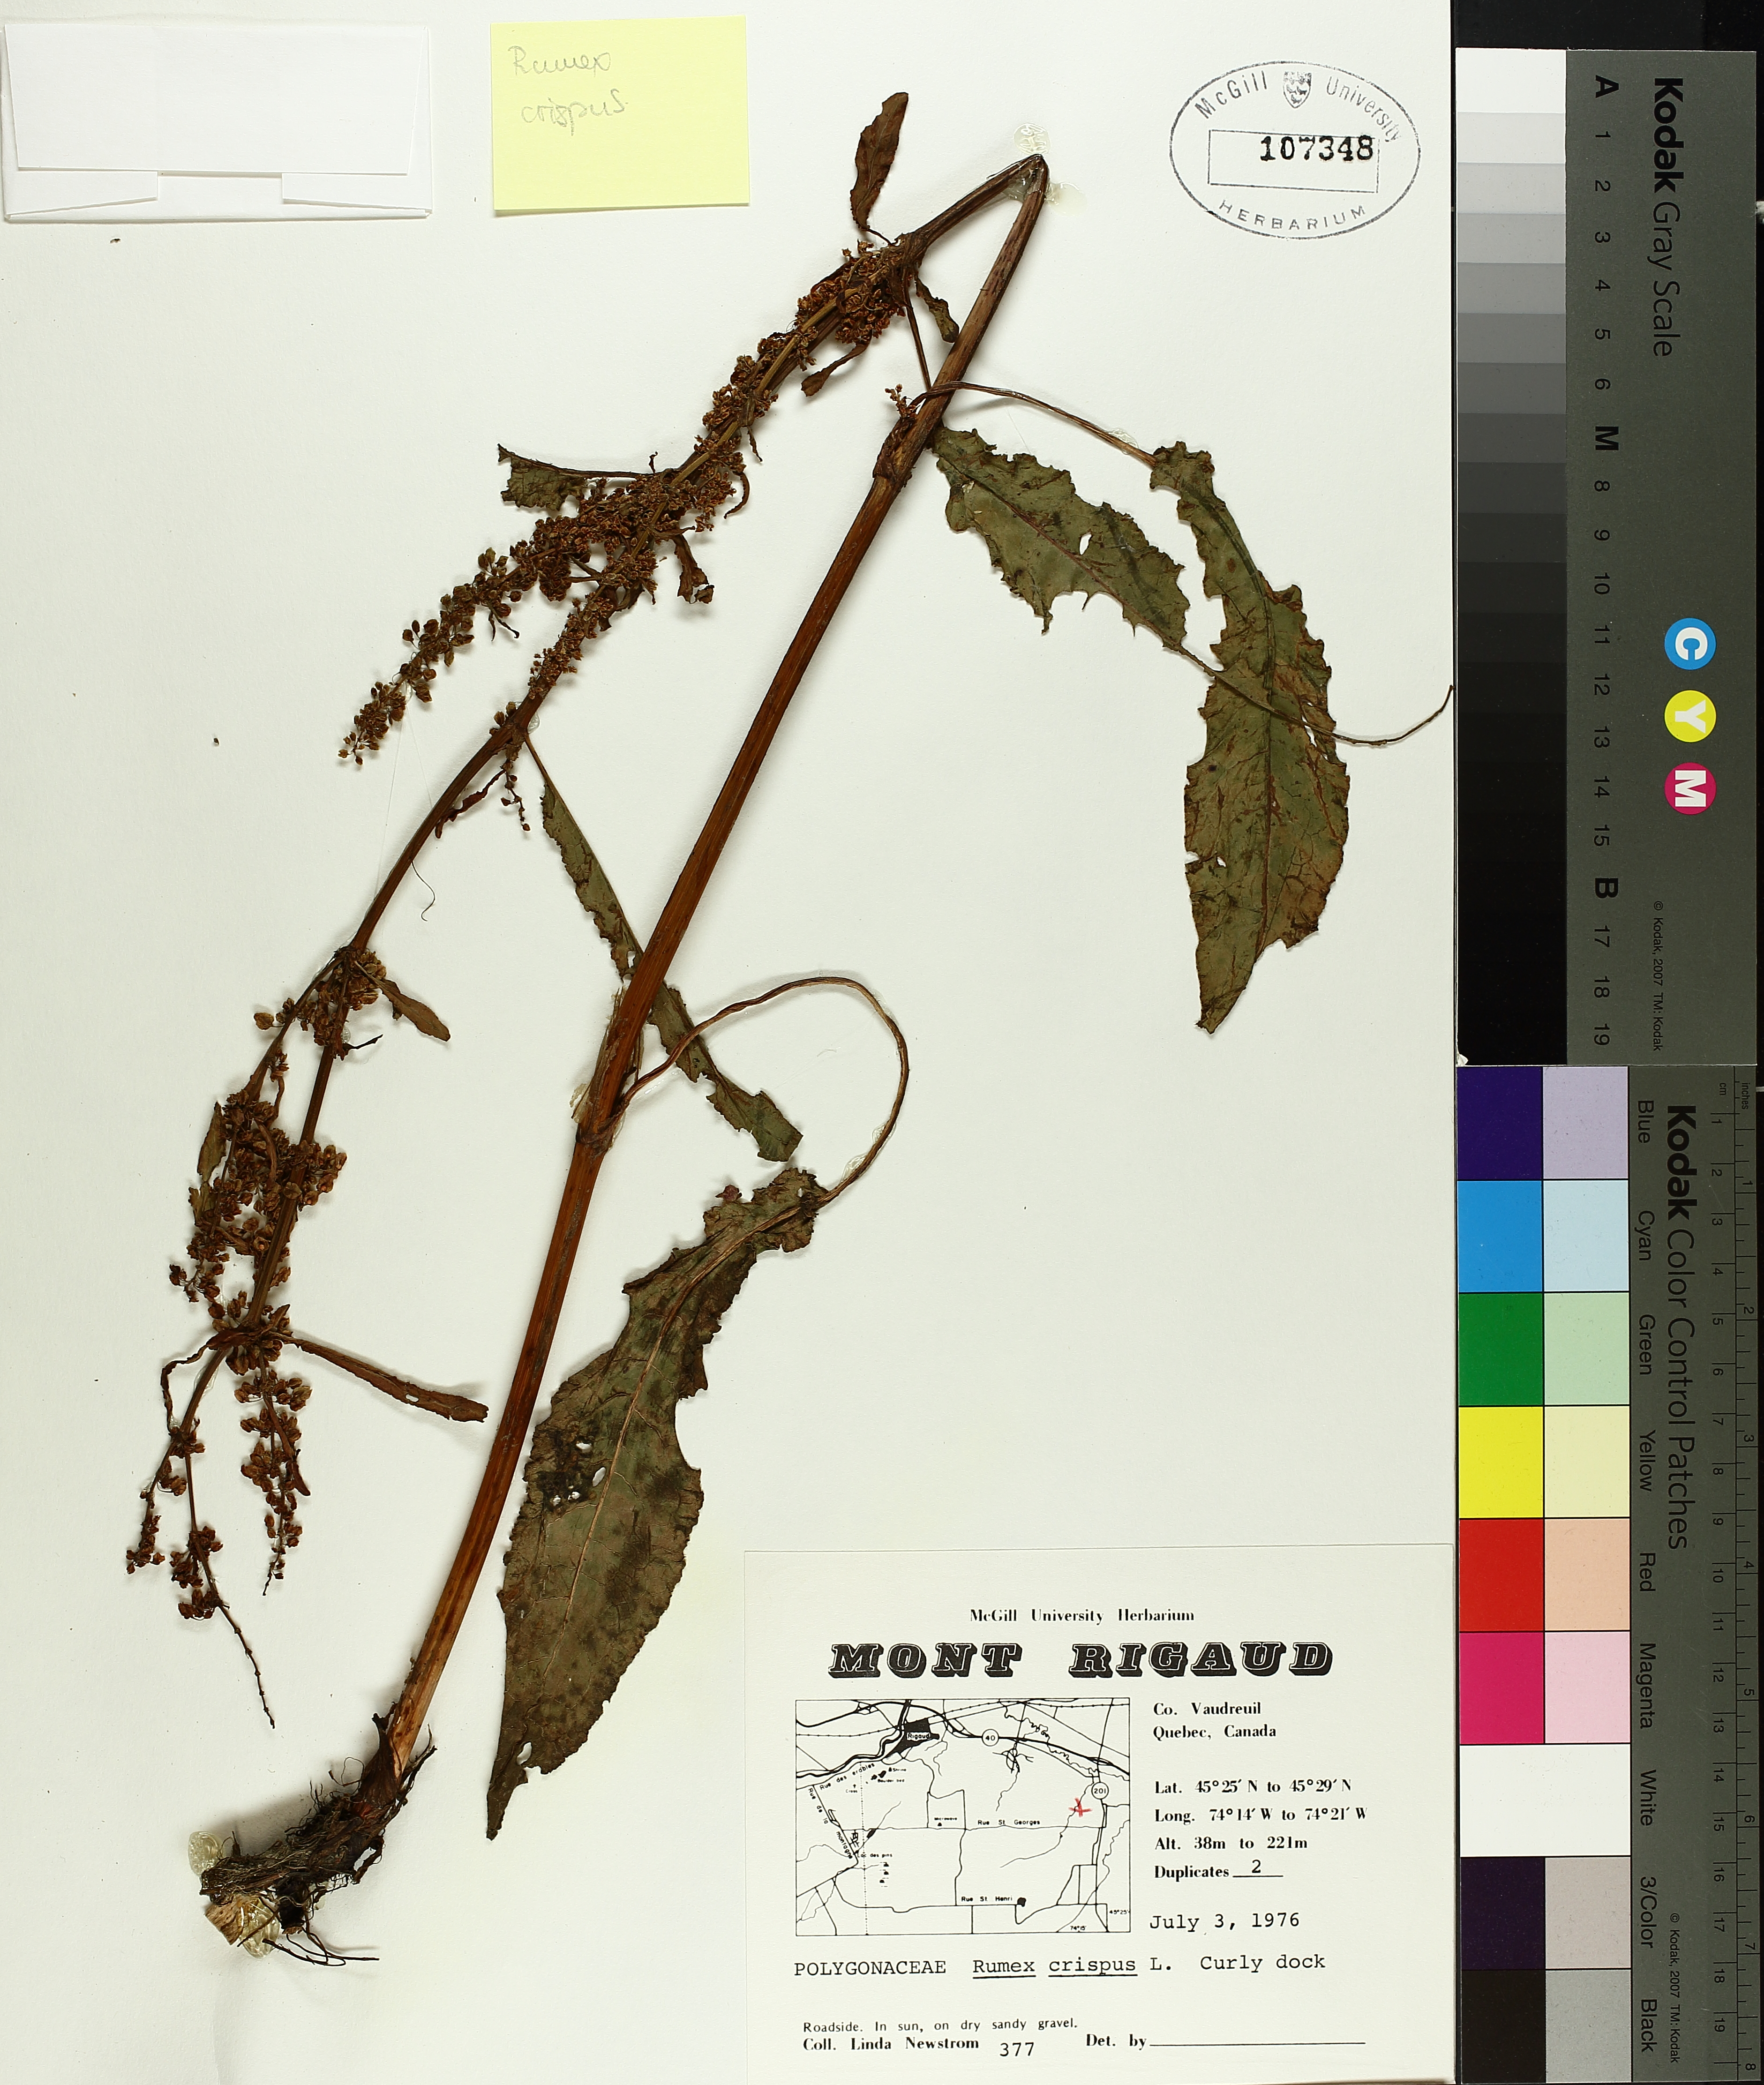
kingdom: Plantae
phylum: Tracheophyta
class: Magnoliopsida
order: Caryophyllales
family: Polygonaceae
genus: Rumex
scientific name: Rumex crispus
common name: Curled dock
